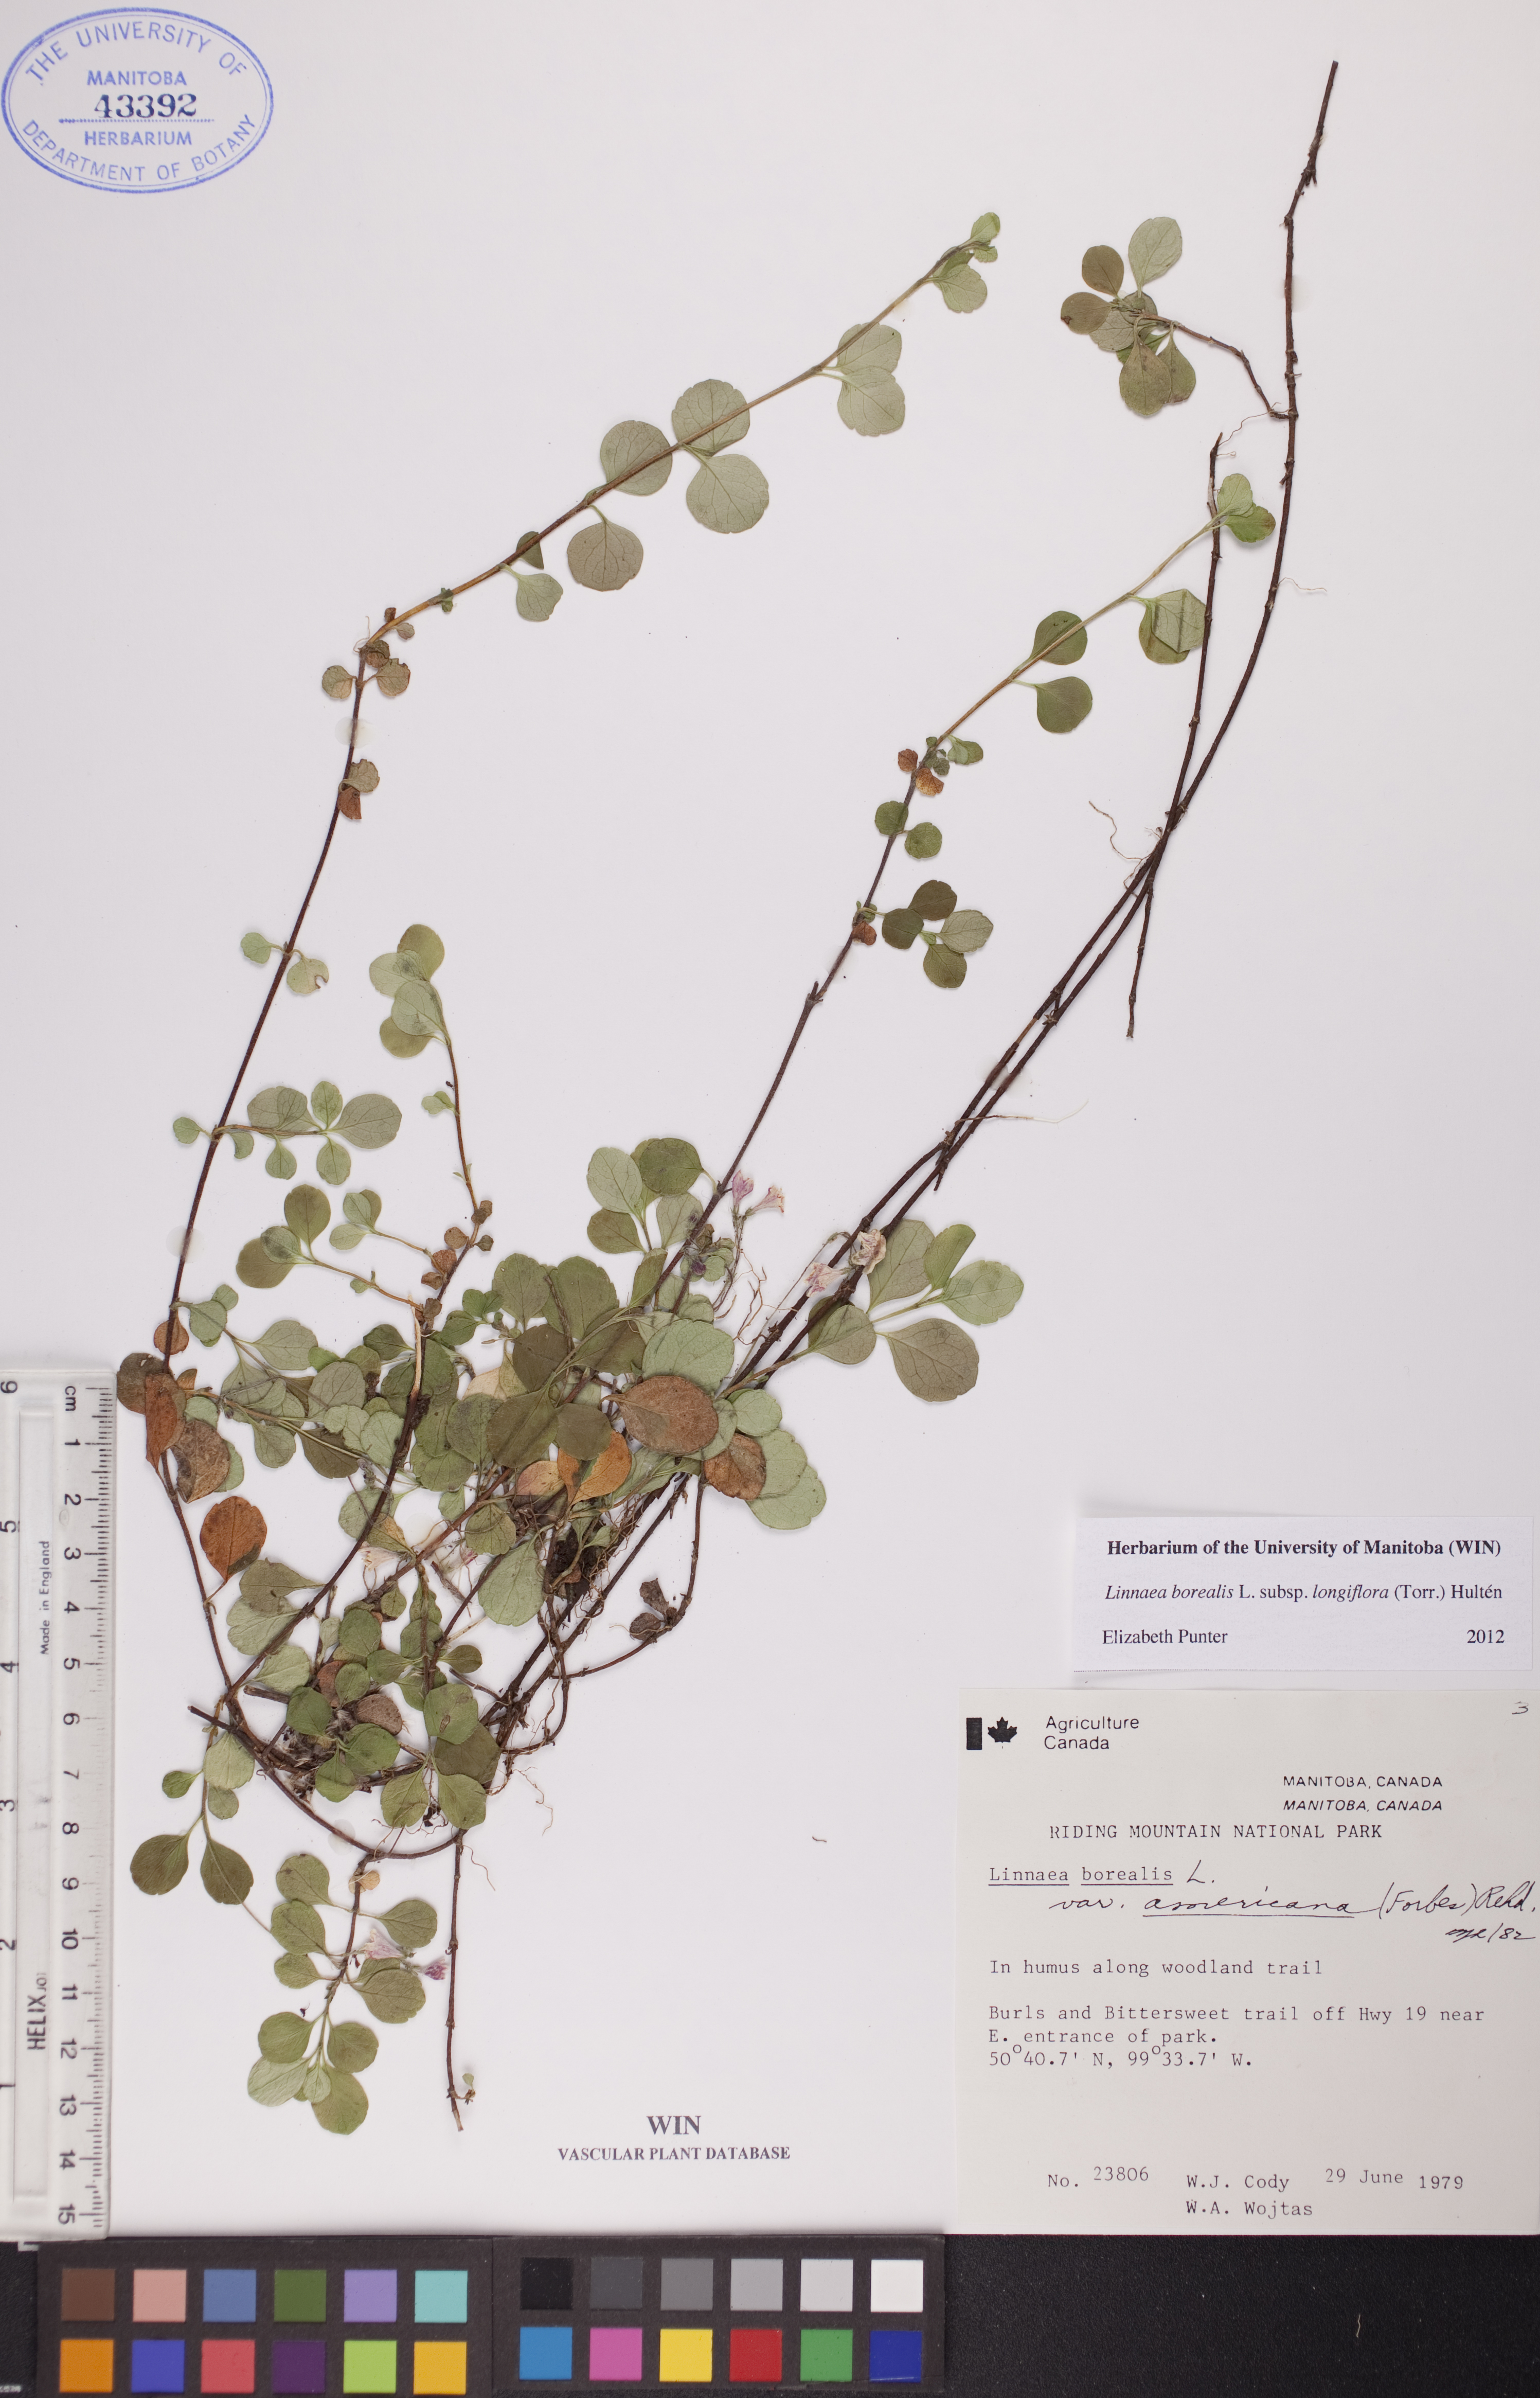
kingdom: Plantae
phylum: Tracheophyta
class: Magnoliopsida
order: Dipsacales
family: Caprifoliaceae
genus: Linnaea
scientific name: Linnaea borealis
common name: Twinflower
